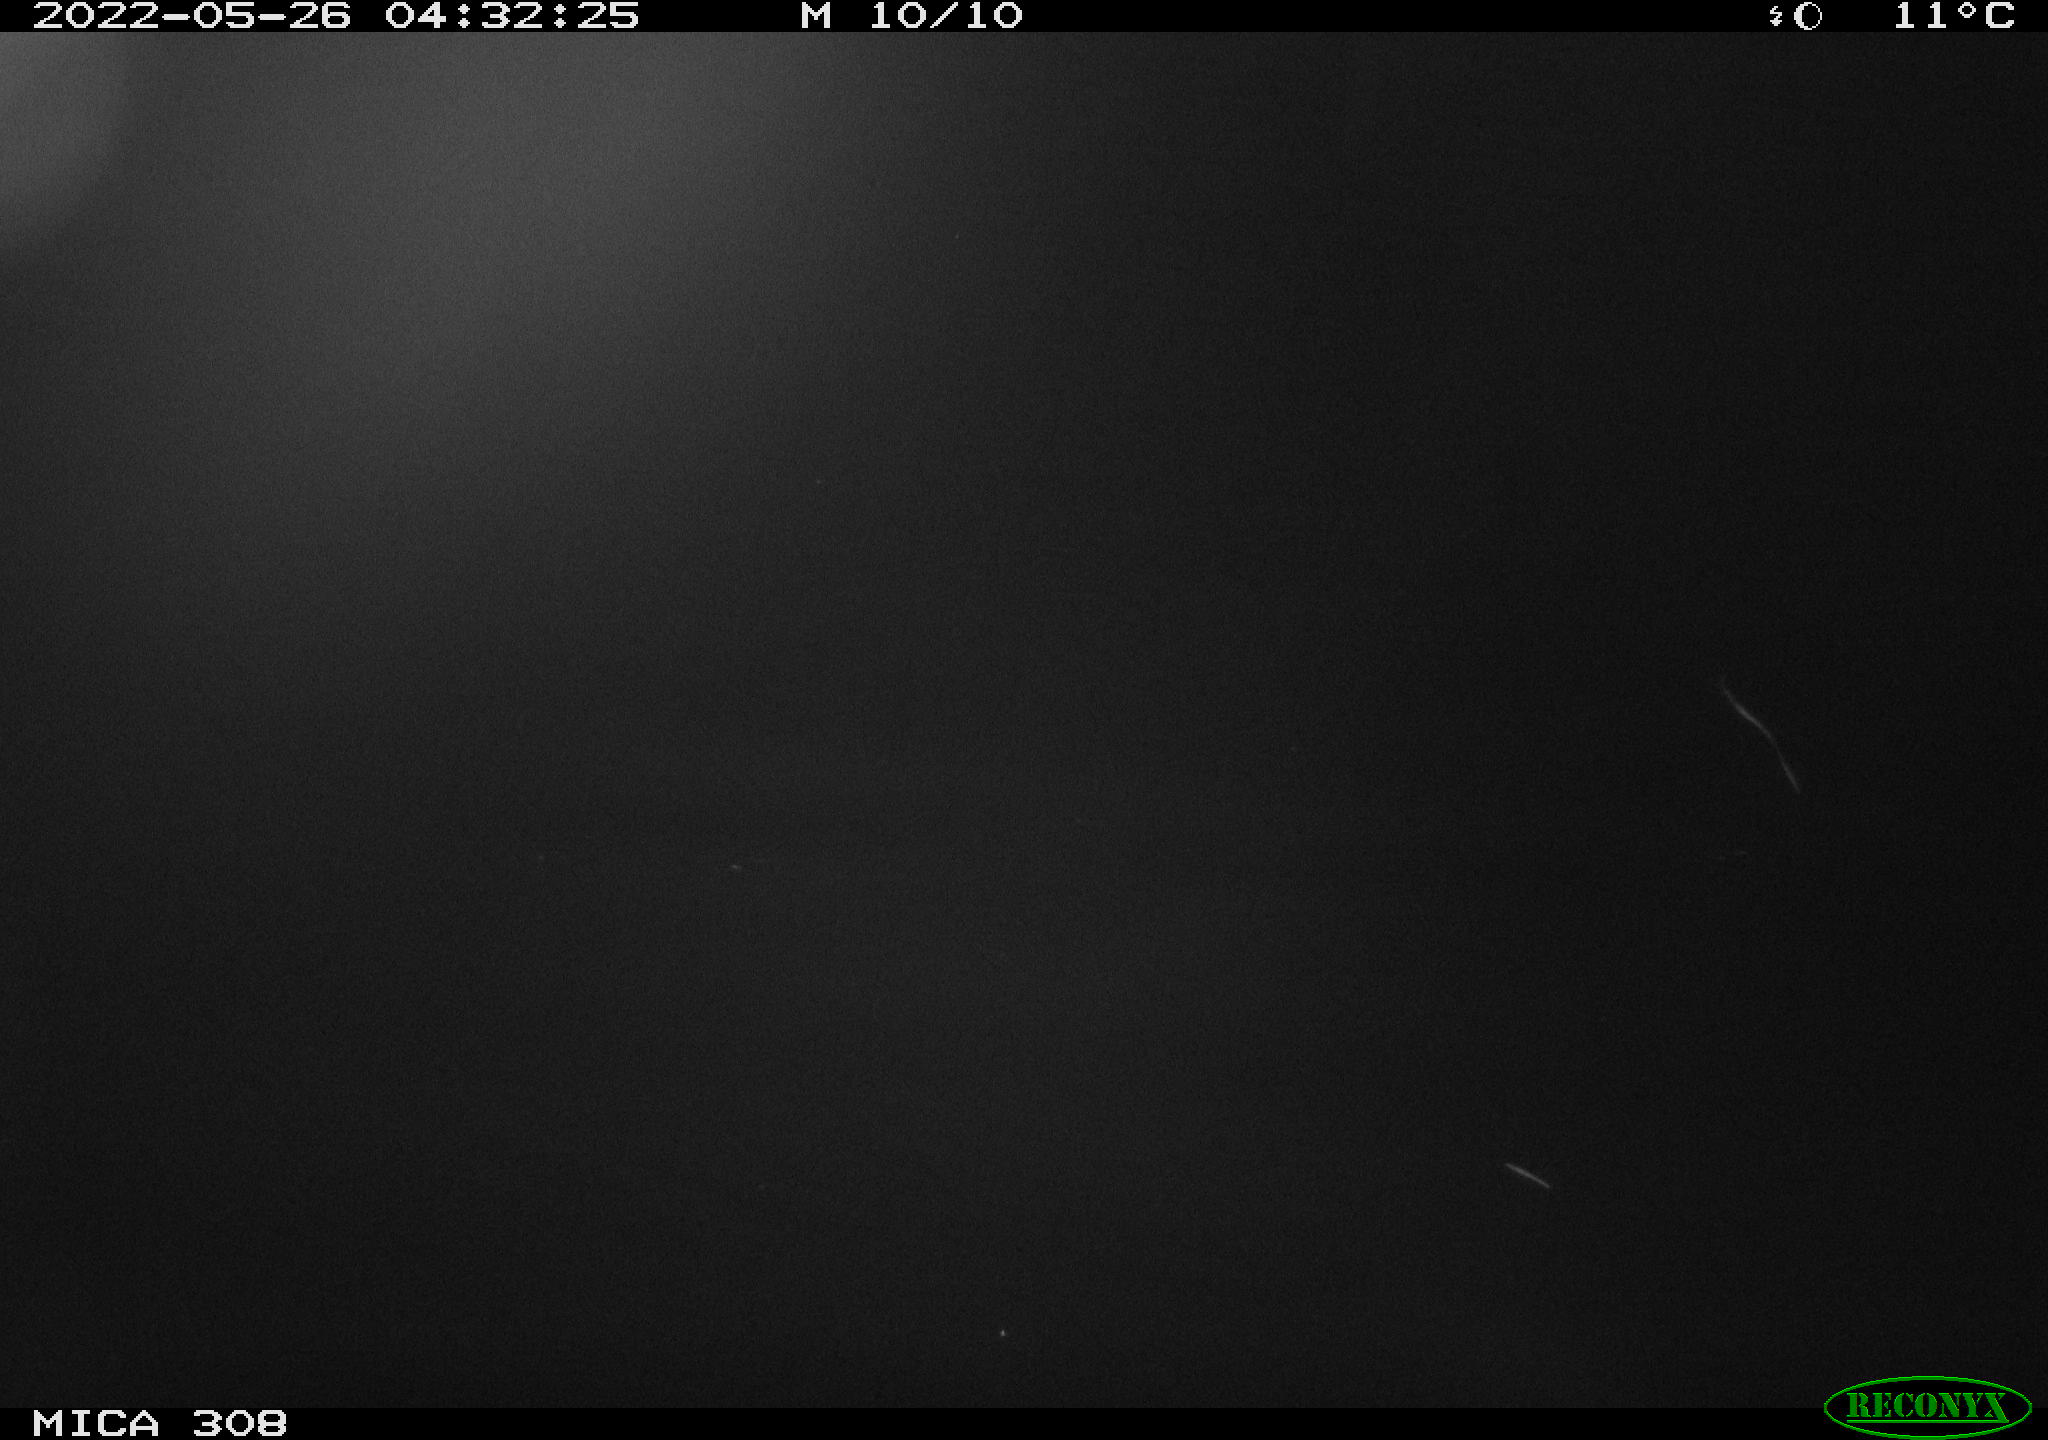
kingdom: Animalia
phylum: Chordata
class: Aves
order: Anseriformes
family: Anatidae
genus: Anas
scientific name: Anas platyrhynchos
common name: Mallard
